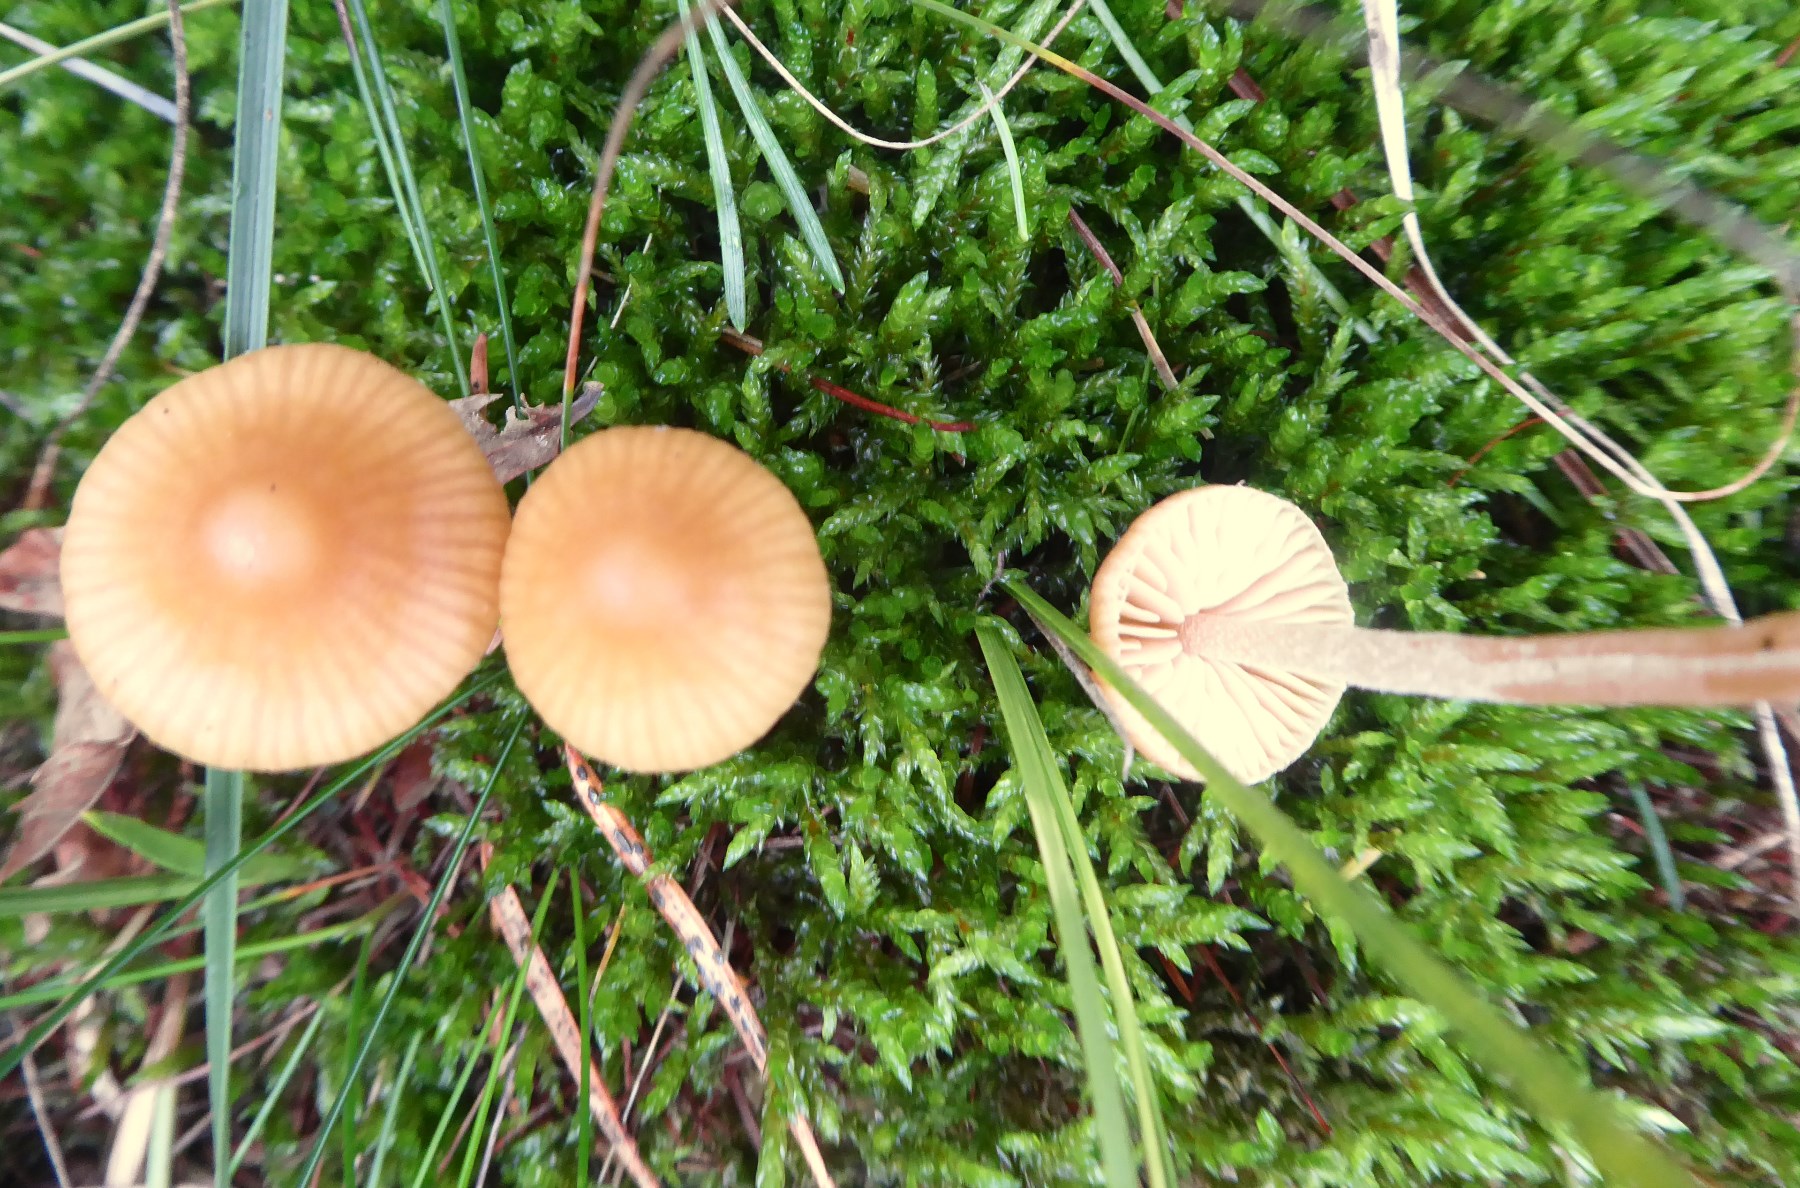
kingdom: Fungi
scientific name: Fungi
